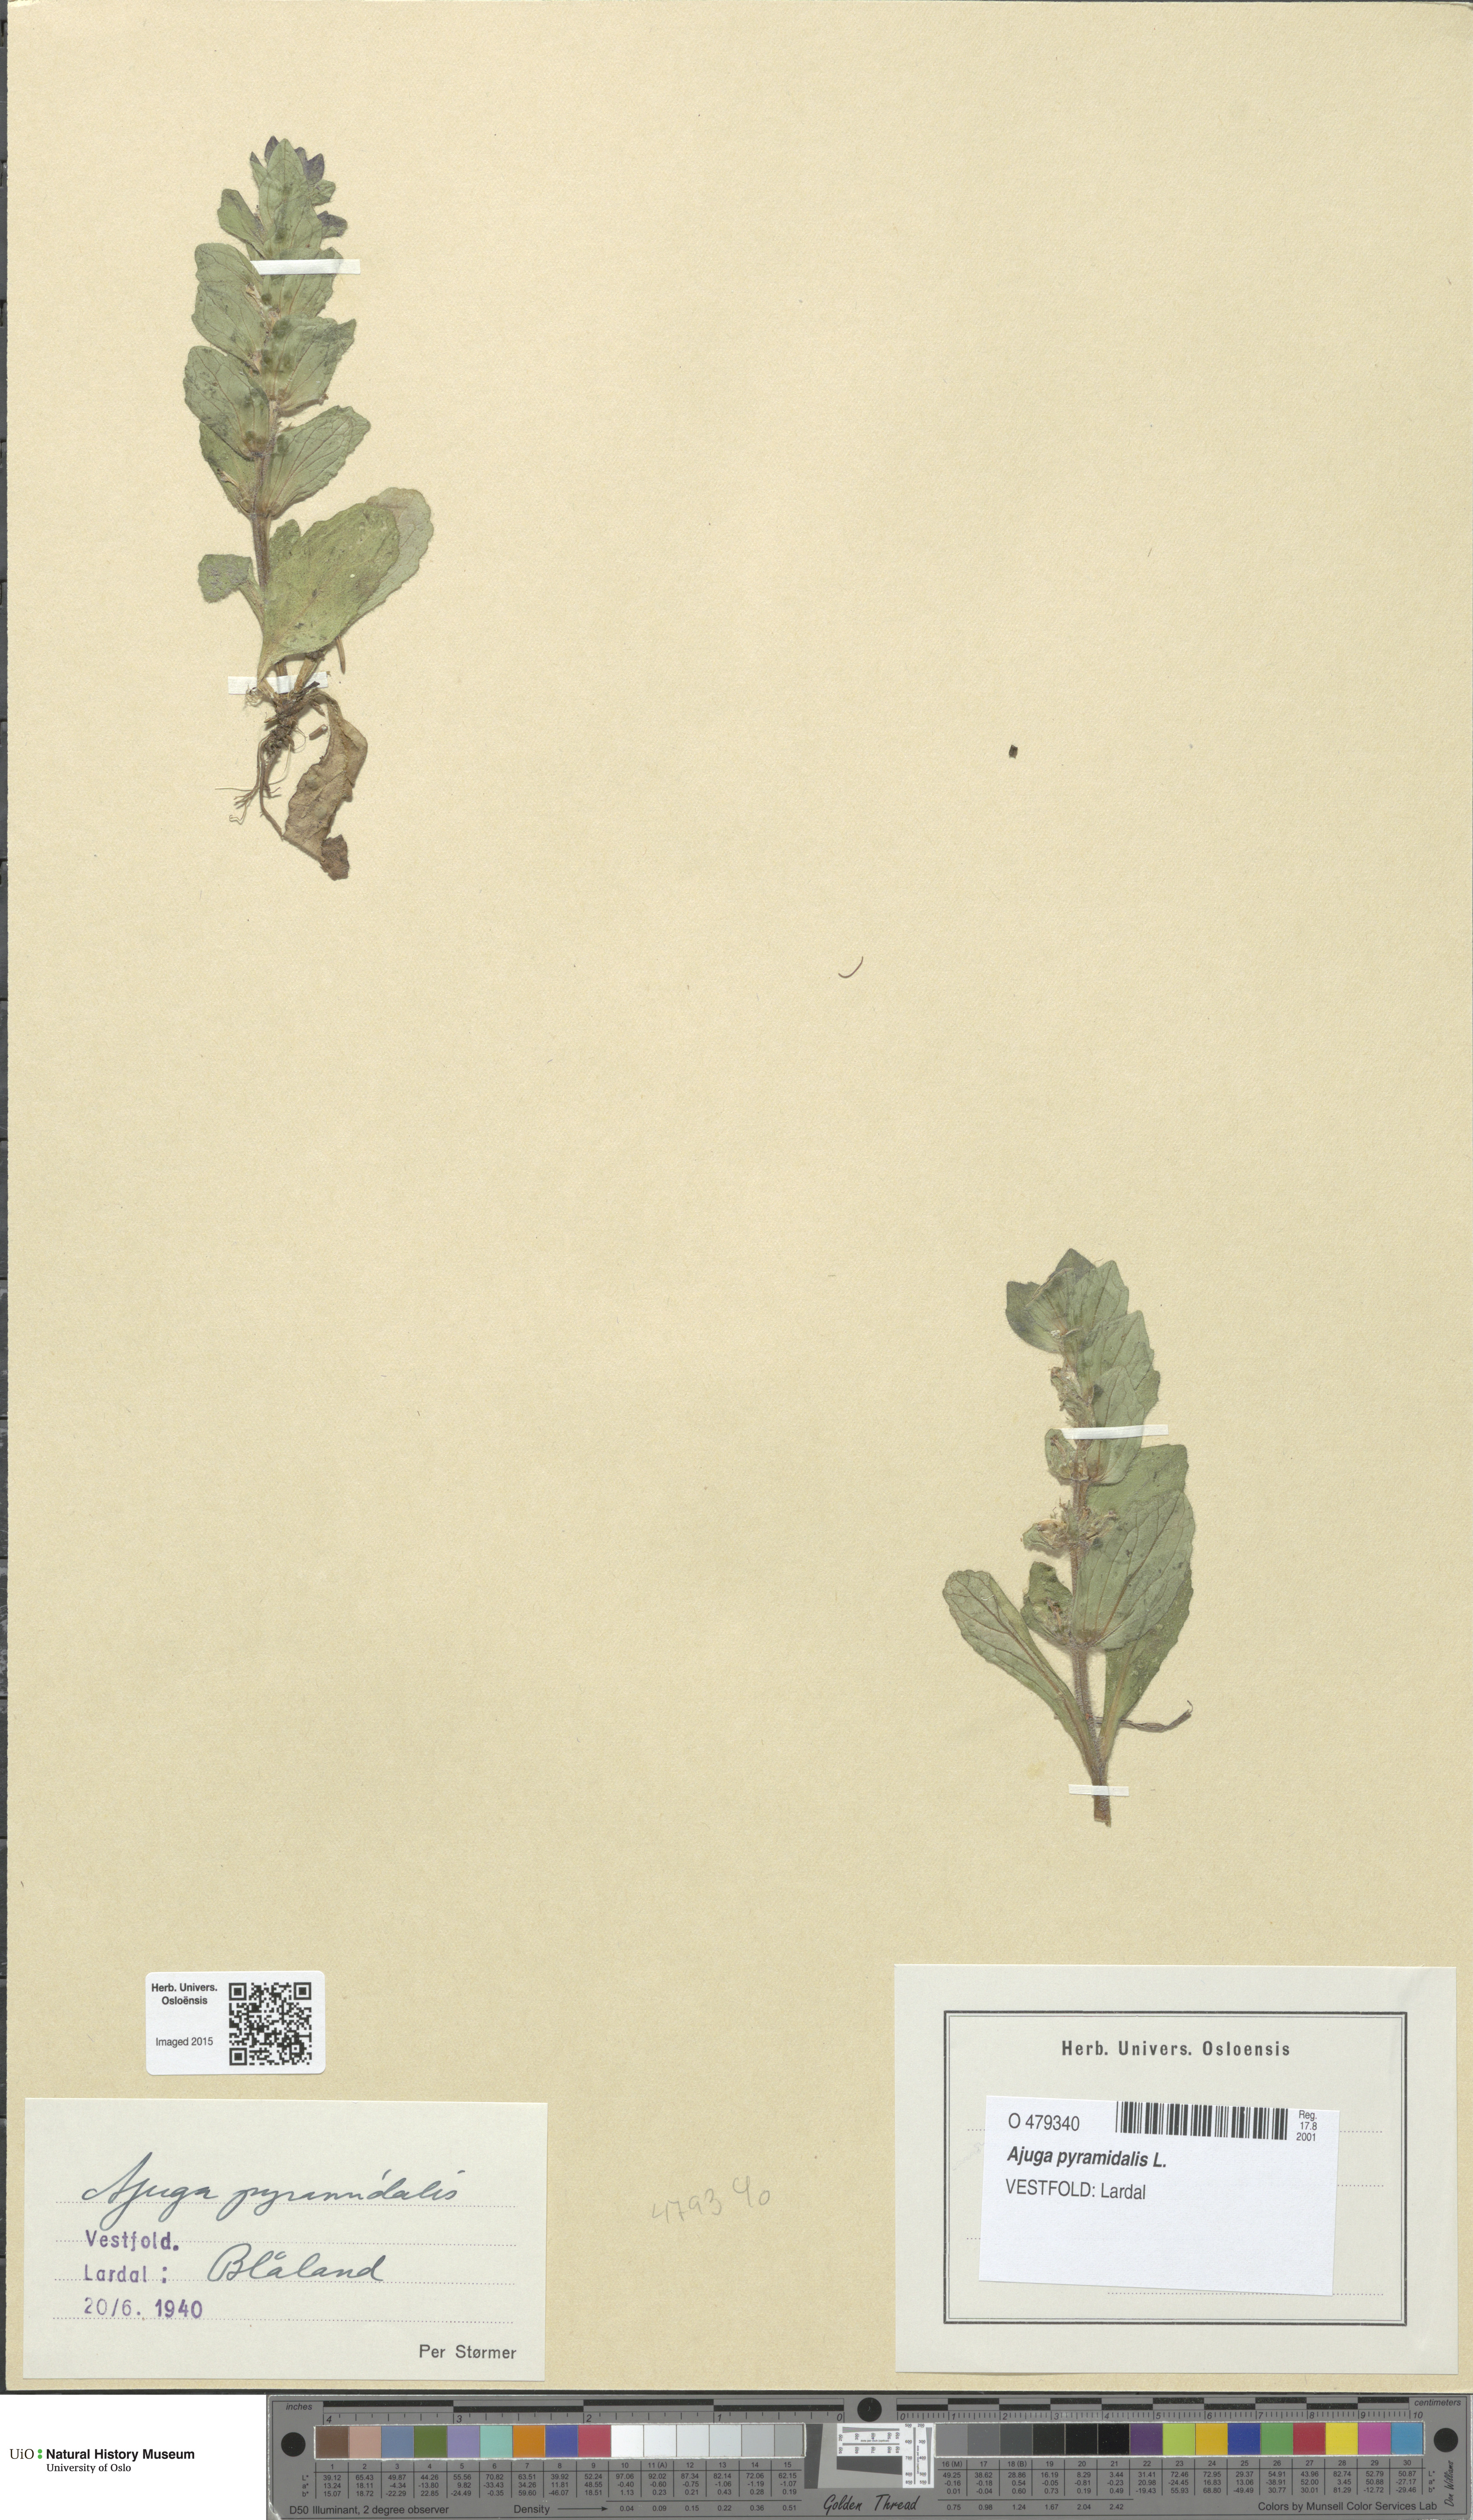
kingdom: Plantae
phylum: Tracheophyta
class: Magnoliopsida
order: Lamiales
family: Lamiaceae
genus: Ajuga
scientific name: Ajuga pyramidalis
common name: Pyramid bugle
